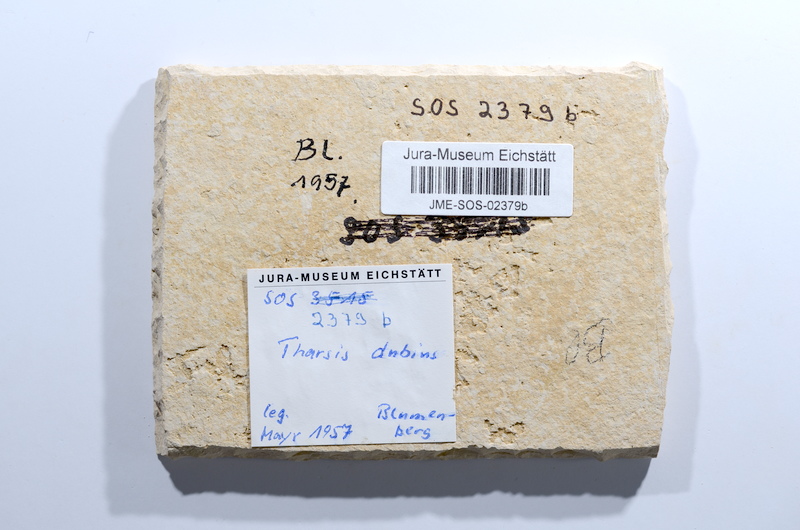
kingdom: Animalia
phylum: Chordata
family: Ascalaboidae
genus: Tharsis
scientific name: Tharsis dubius
